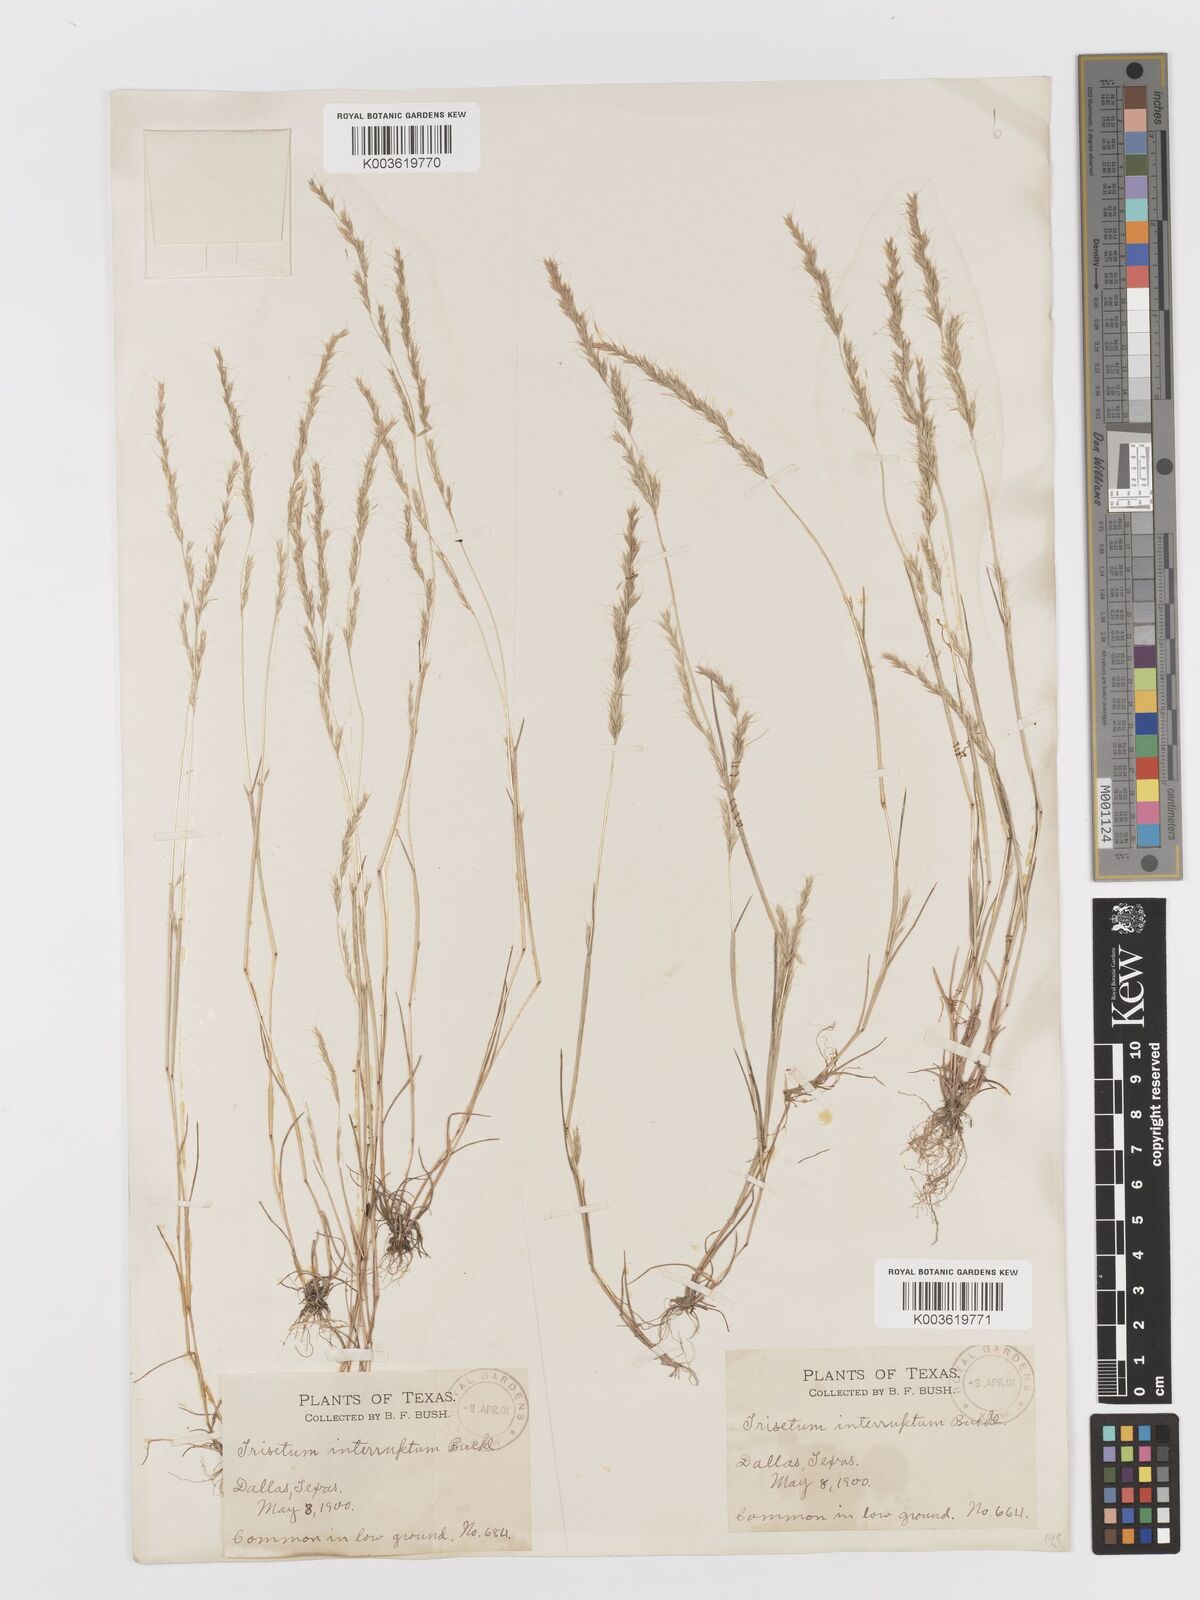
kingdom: Plantae
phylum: Tracheophyta
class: Liliopsida
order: Poales
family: Poaceae
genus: Sphenopholis
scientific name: Sphenopholis interrupta
